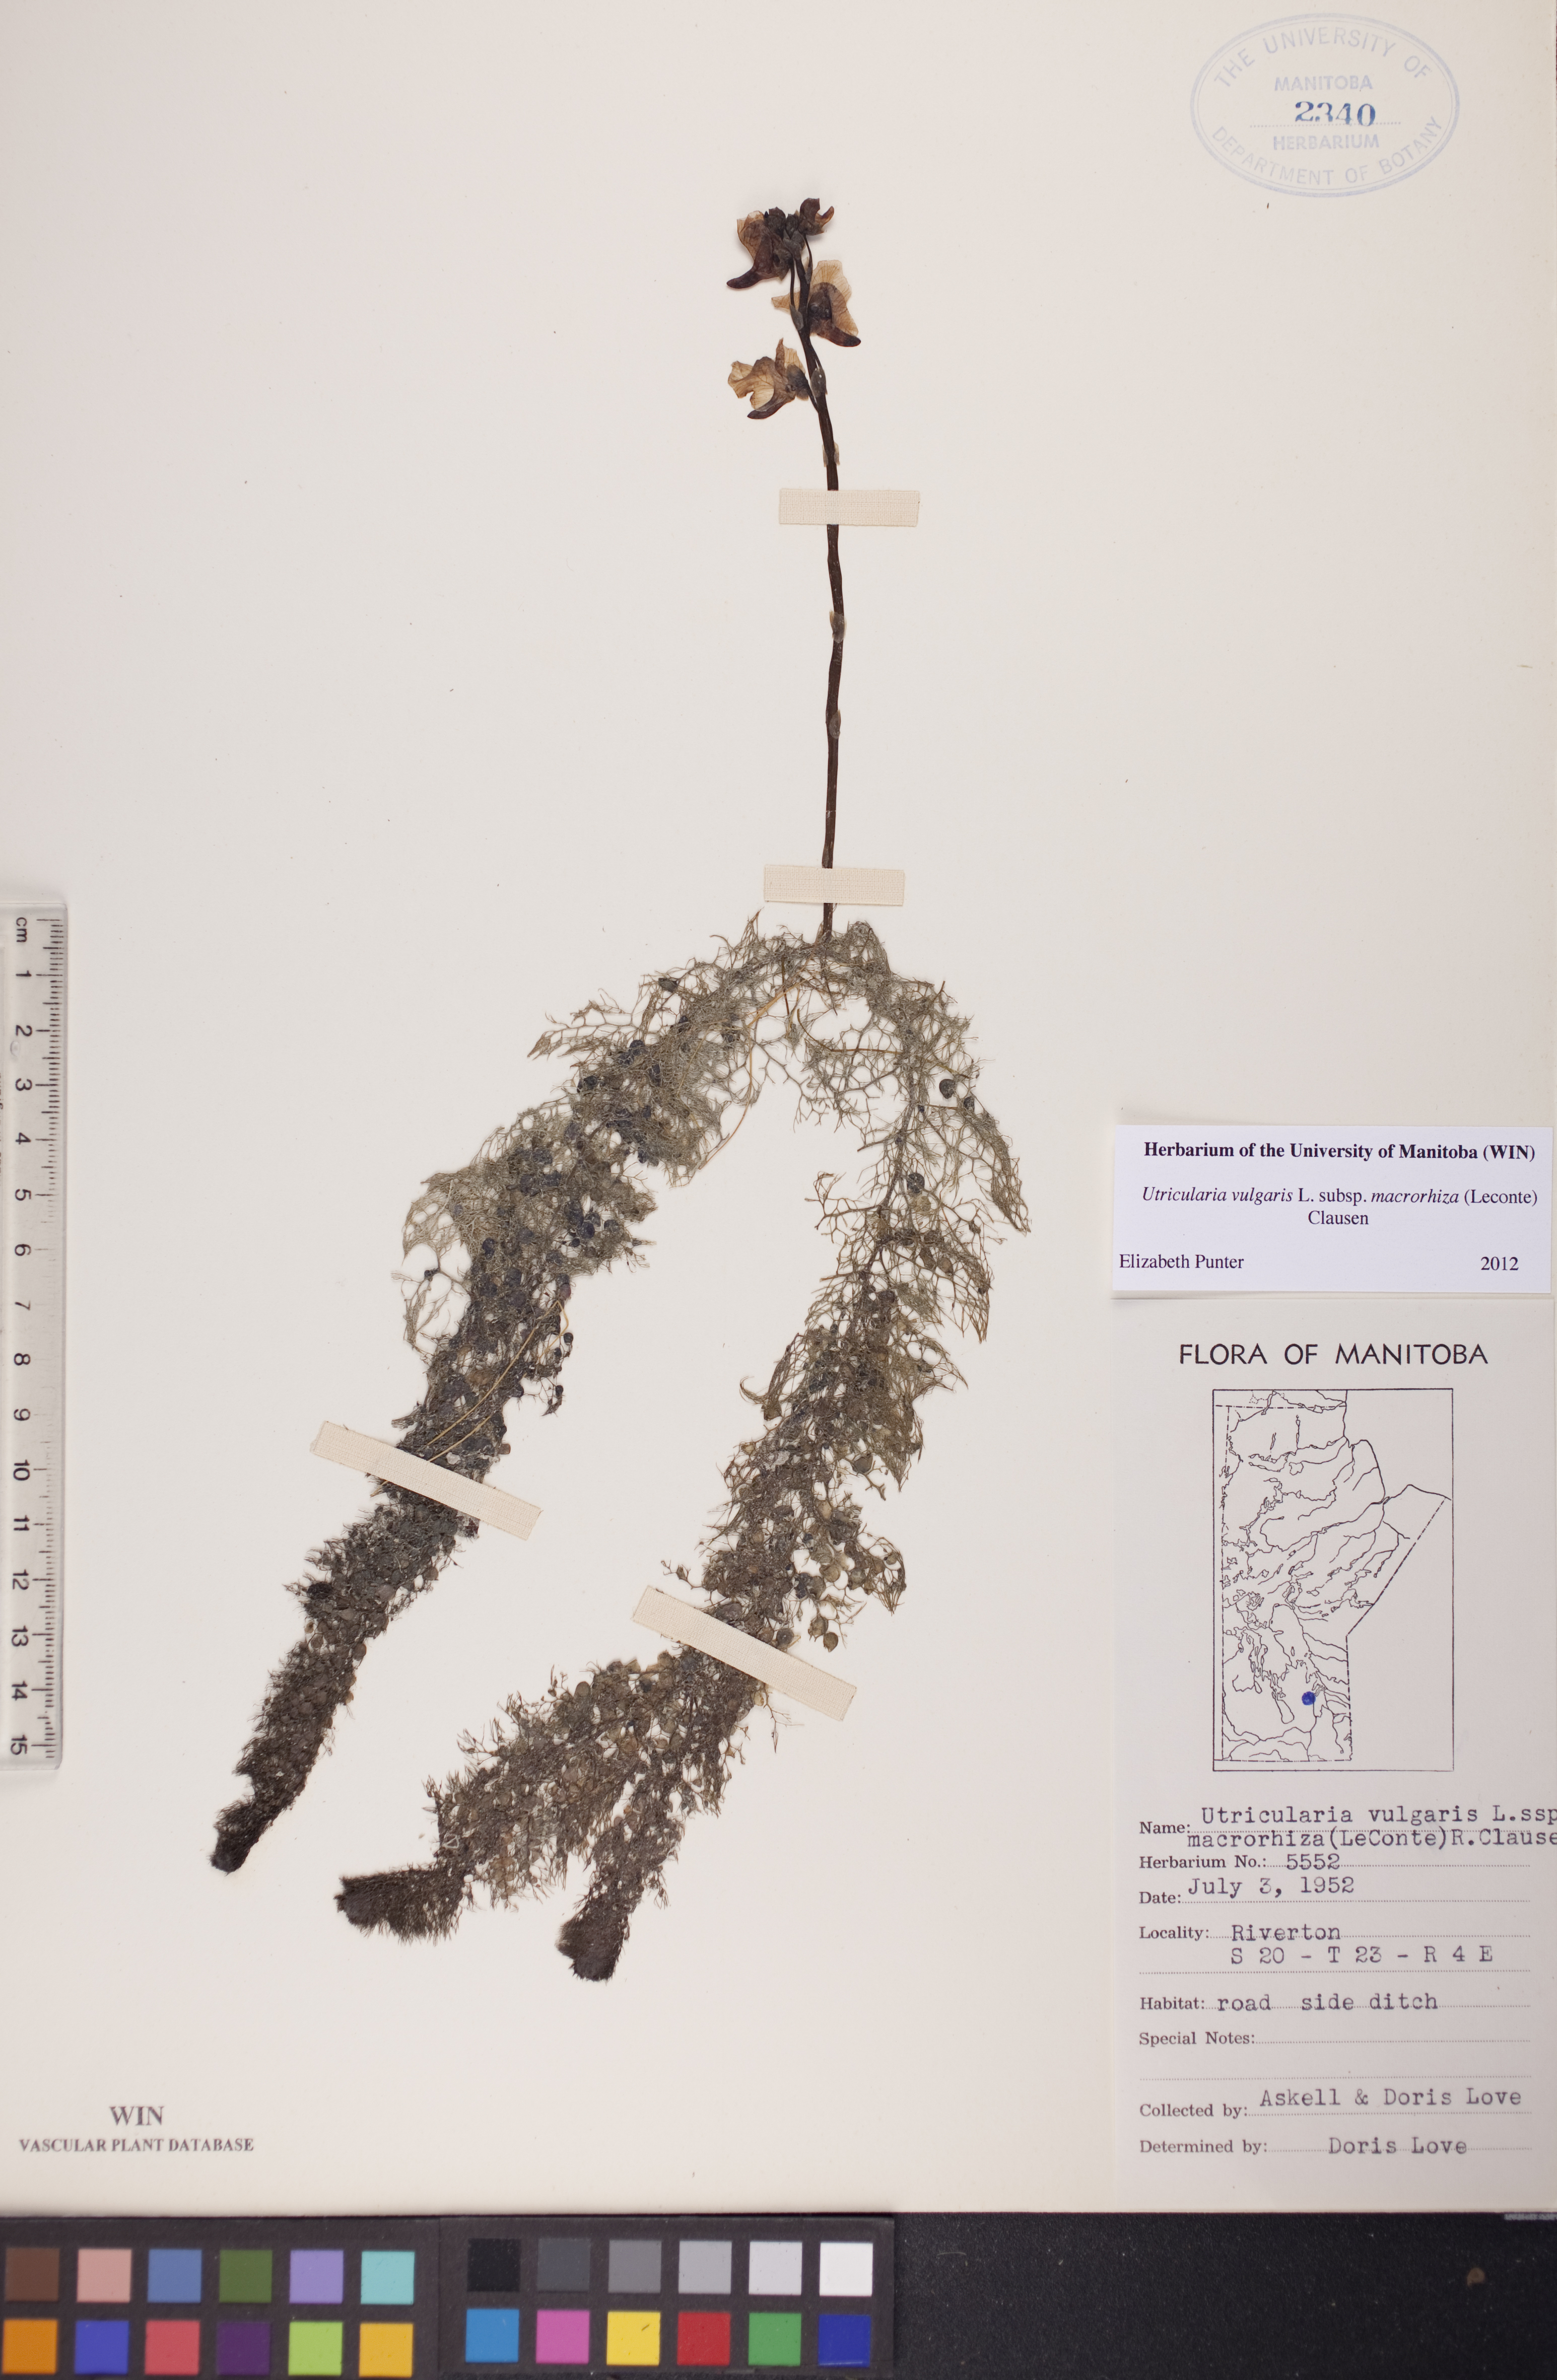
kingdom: Plantae
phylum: Tracheophyta
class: Magnoliopsida
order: Lamiales
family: Lentibulariaceae
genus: Utricularia
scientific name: Utricularia macrorhiza
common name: Common bladderwort
